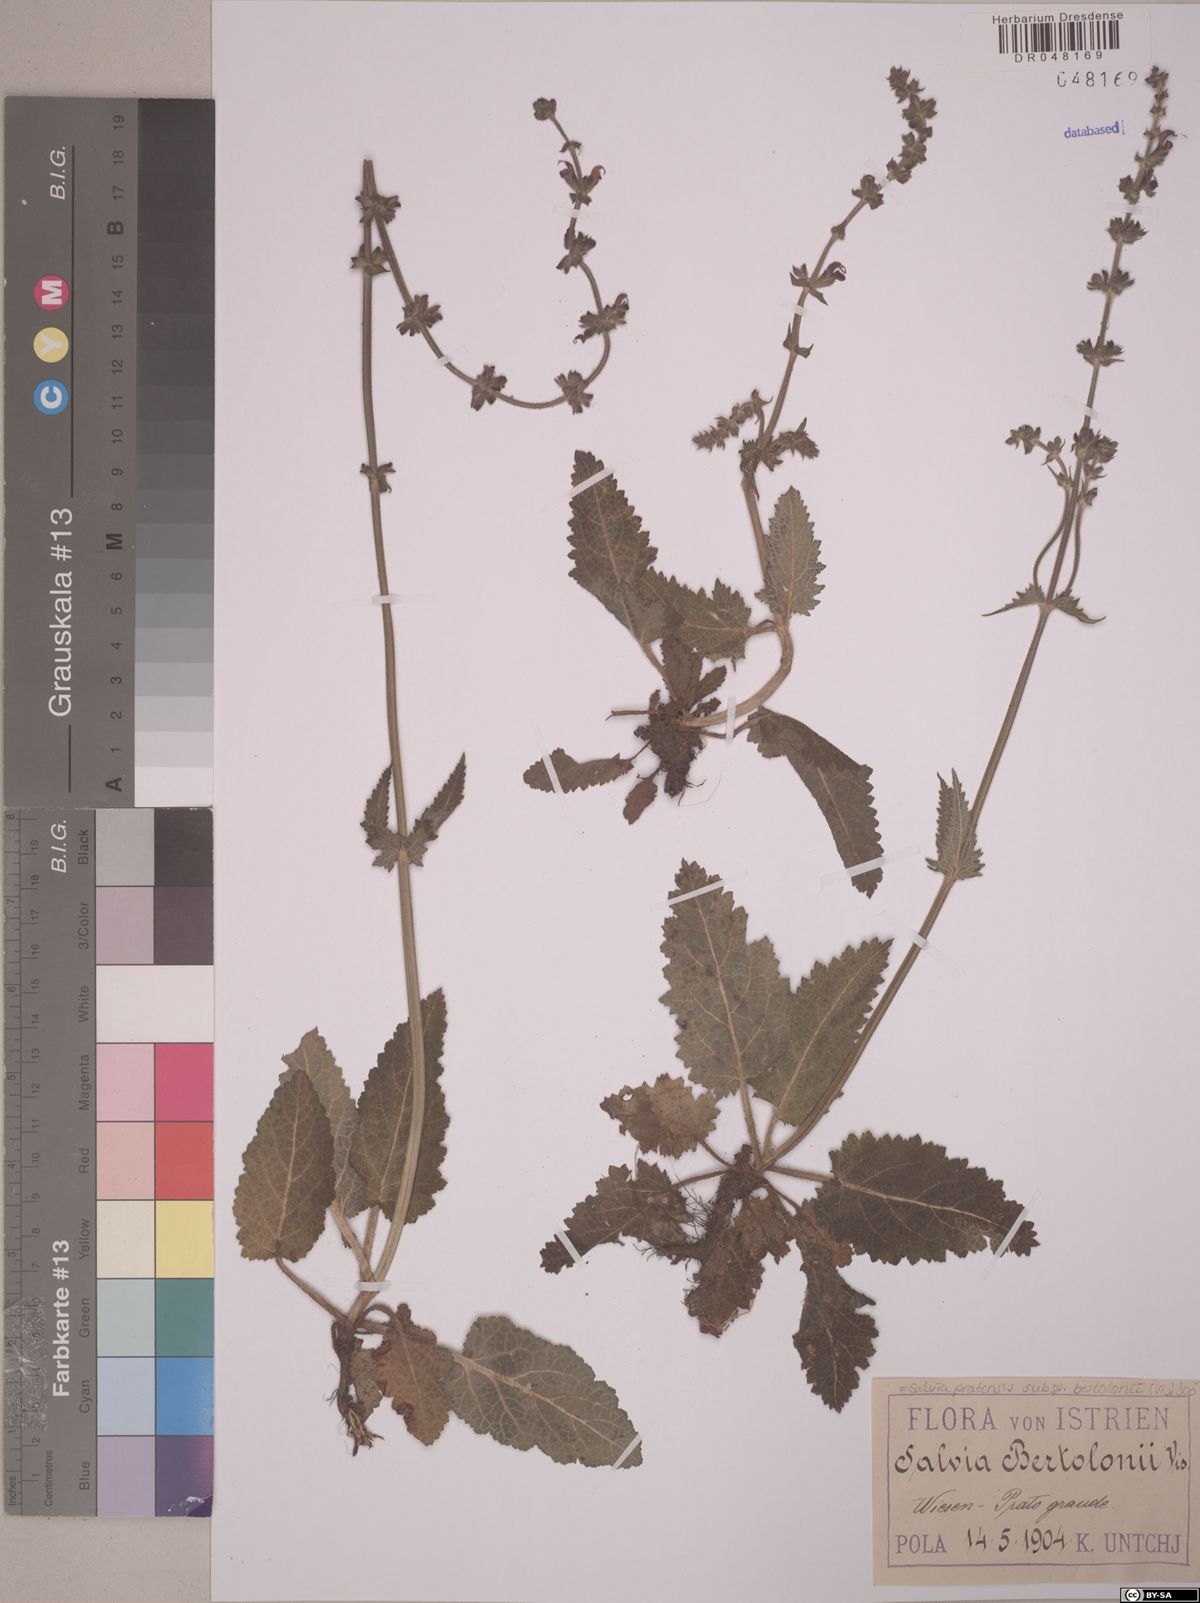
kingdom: Plantae
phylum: Tracheophyta
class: Magnoliopsida
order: Lamiales
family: Lamiaceae
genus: Salvia
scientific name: Salvia pratensis
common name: Meadow sage
